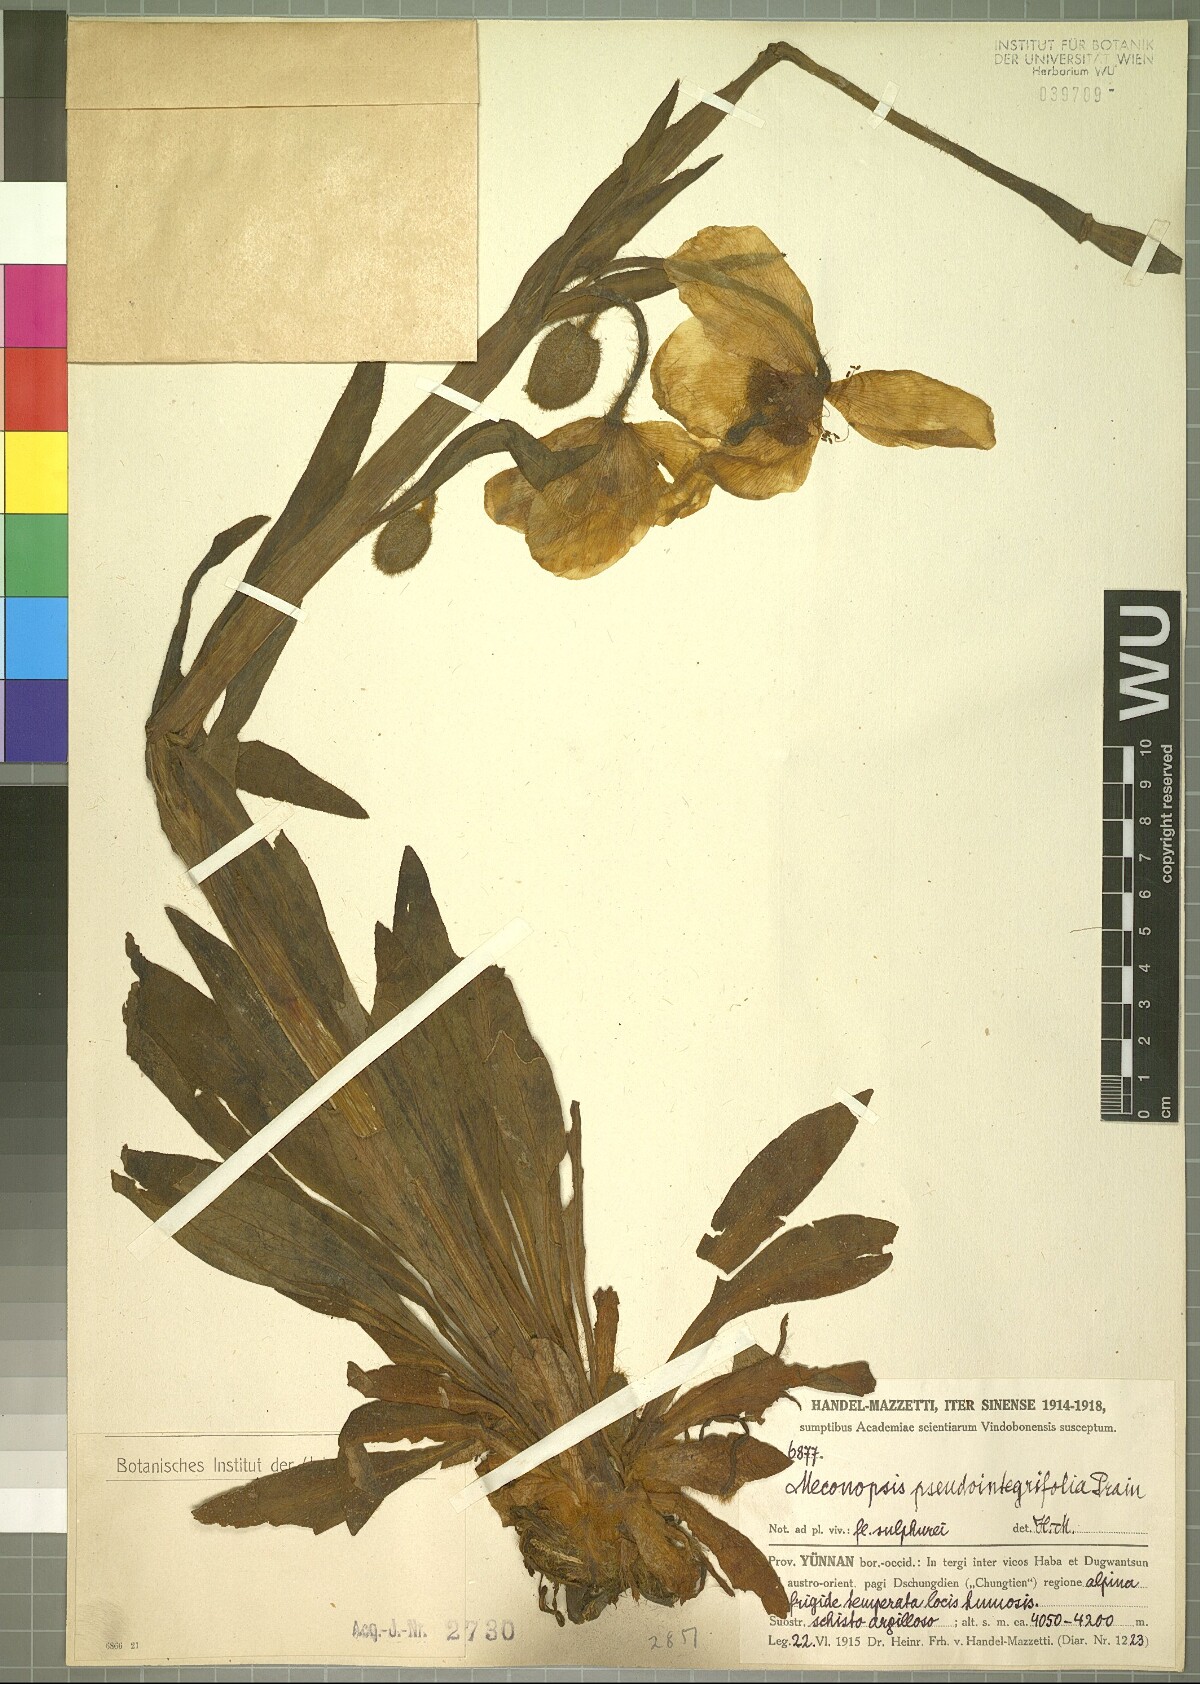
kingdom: Plantae
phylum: Tracheophyta
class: Magnoliopsida
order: Ranunculales
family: Papaveraceae
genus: Meconopsis
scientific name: Meconopsis pseudointegrifolia
